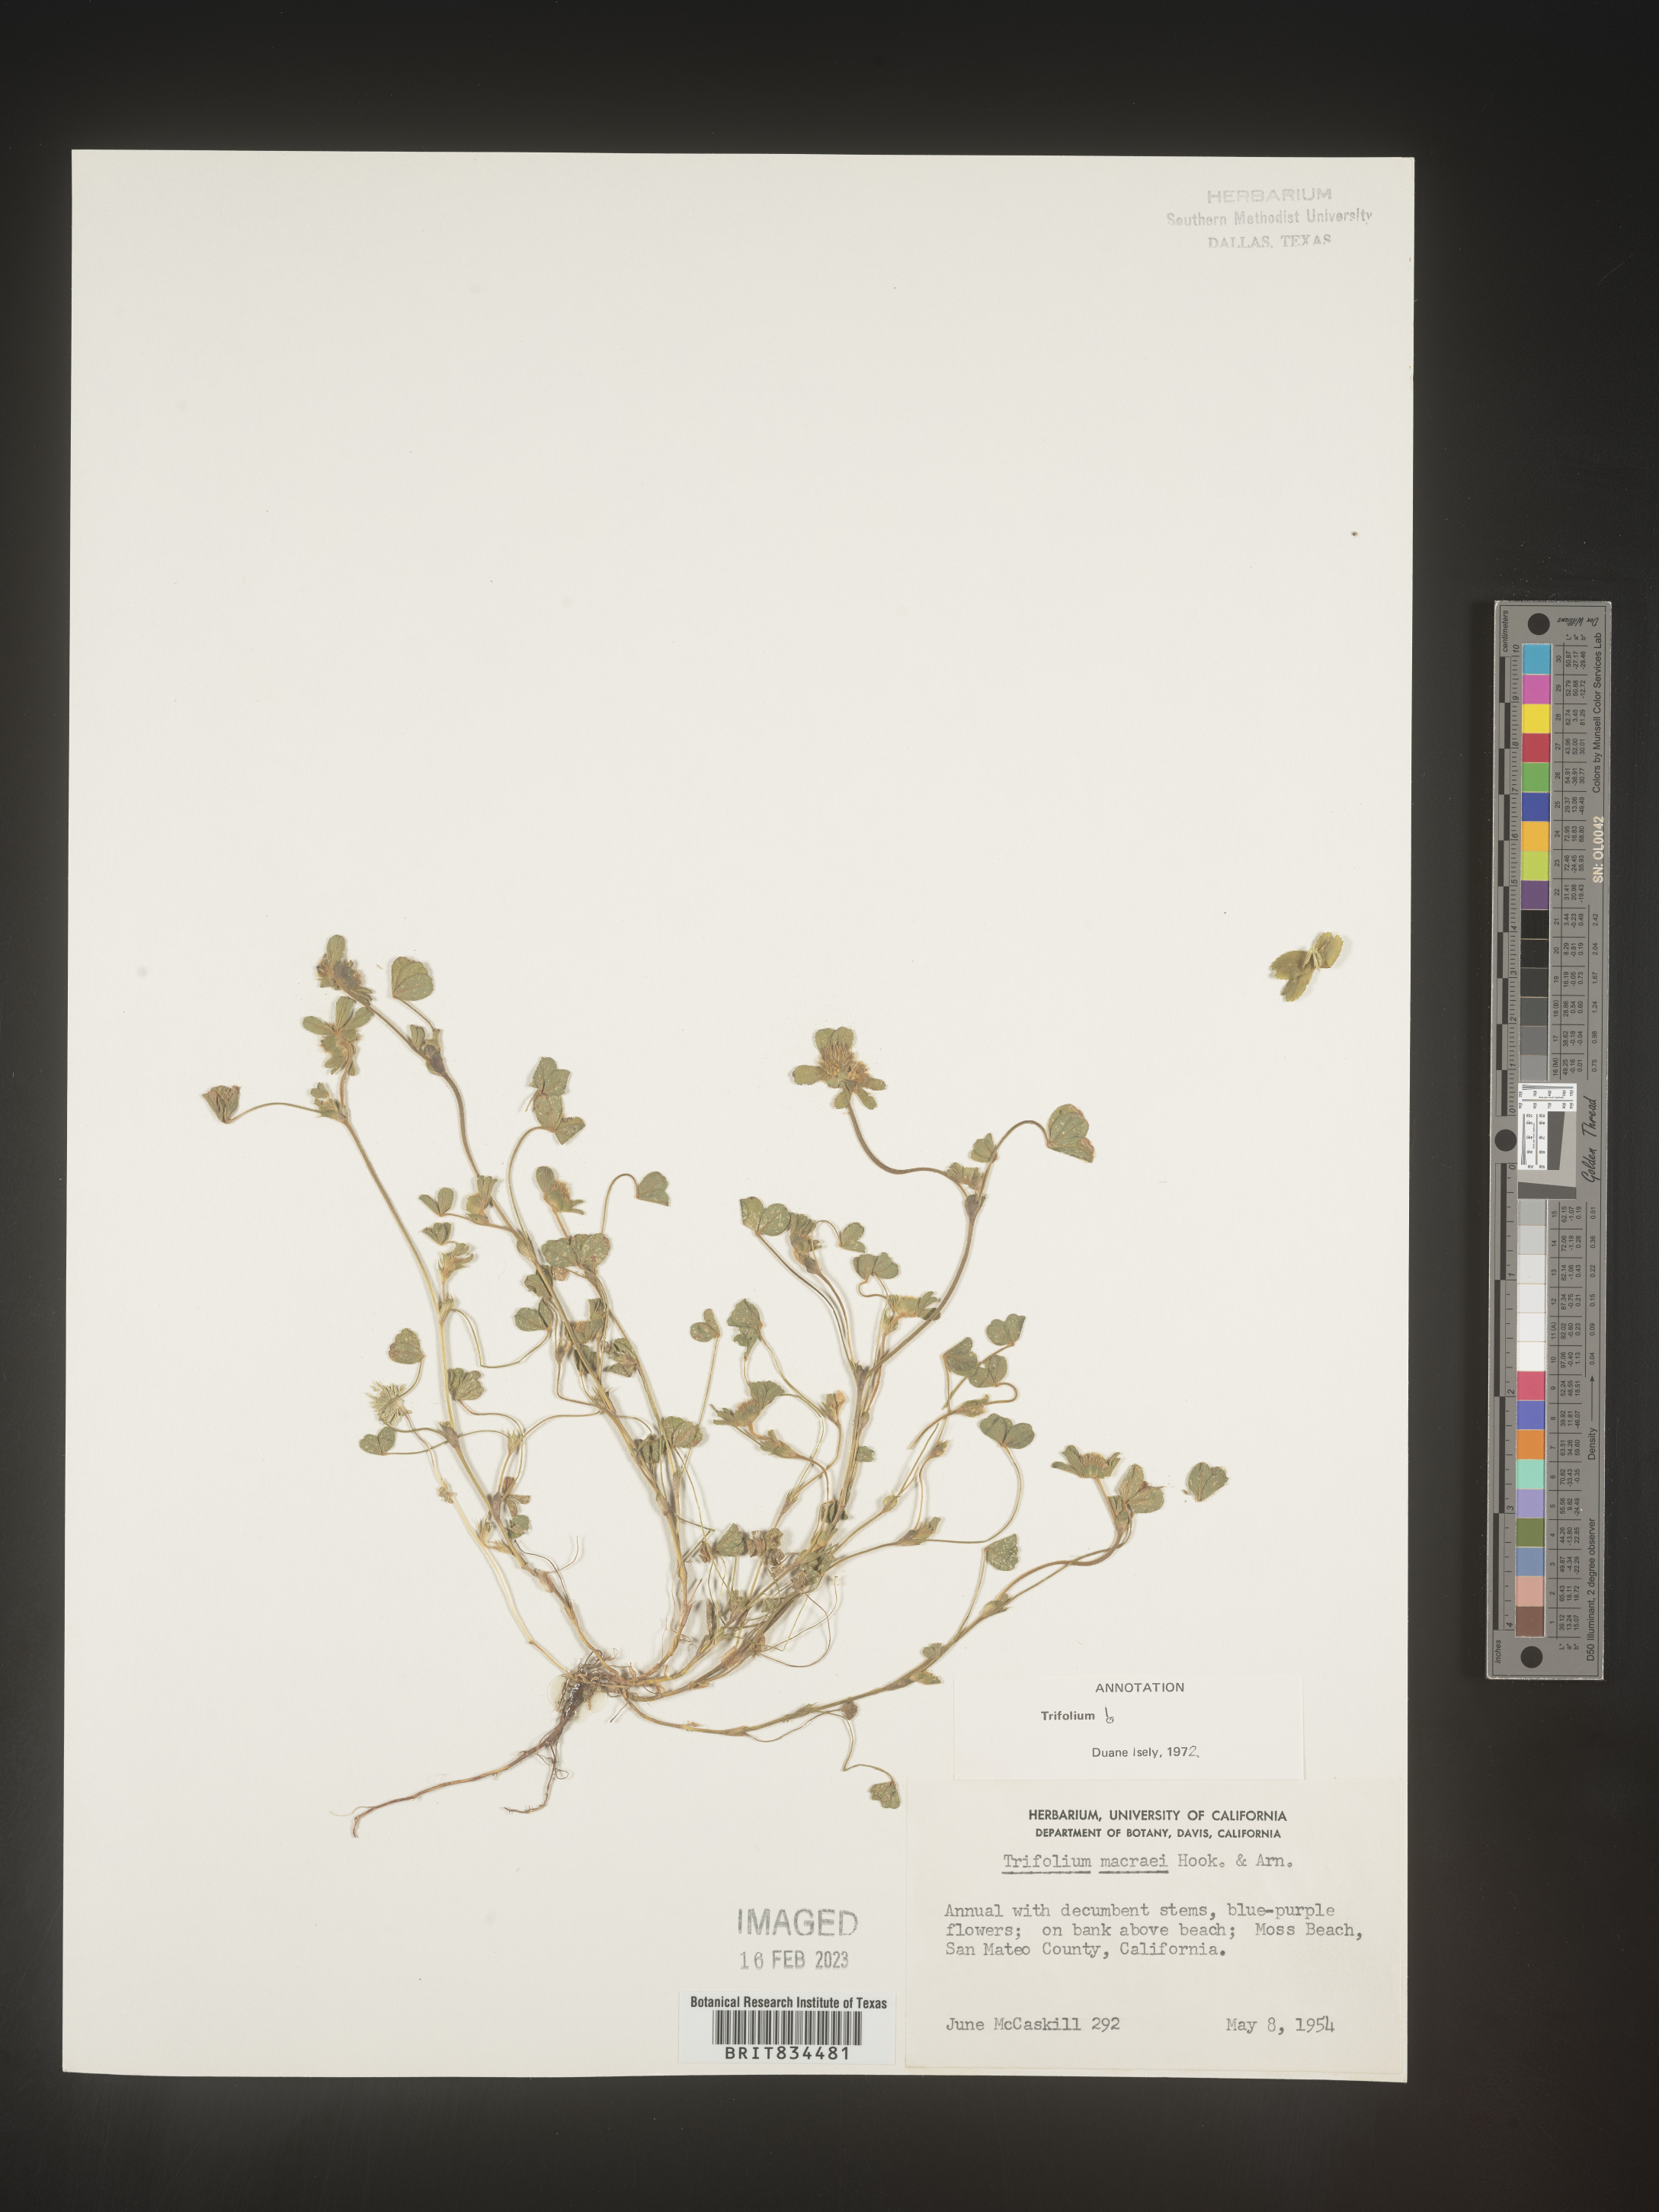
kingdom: Plantae
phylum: Tracheophyta
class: Magnoliopsida
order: Fabales
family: Fabaceae
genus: Trifolium
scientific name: Trifolium
